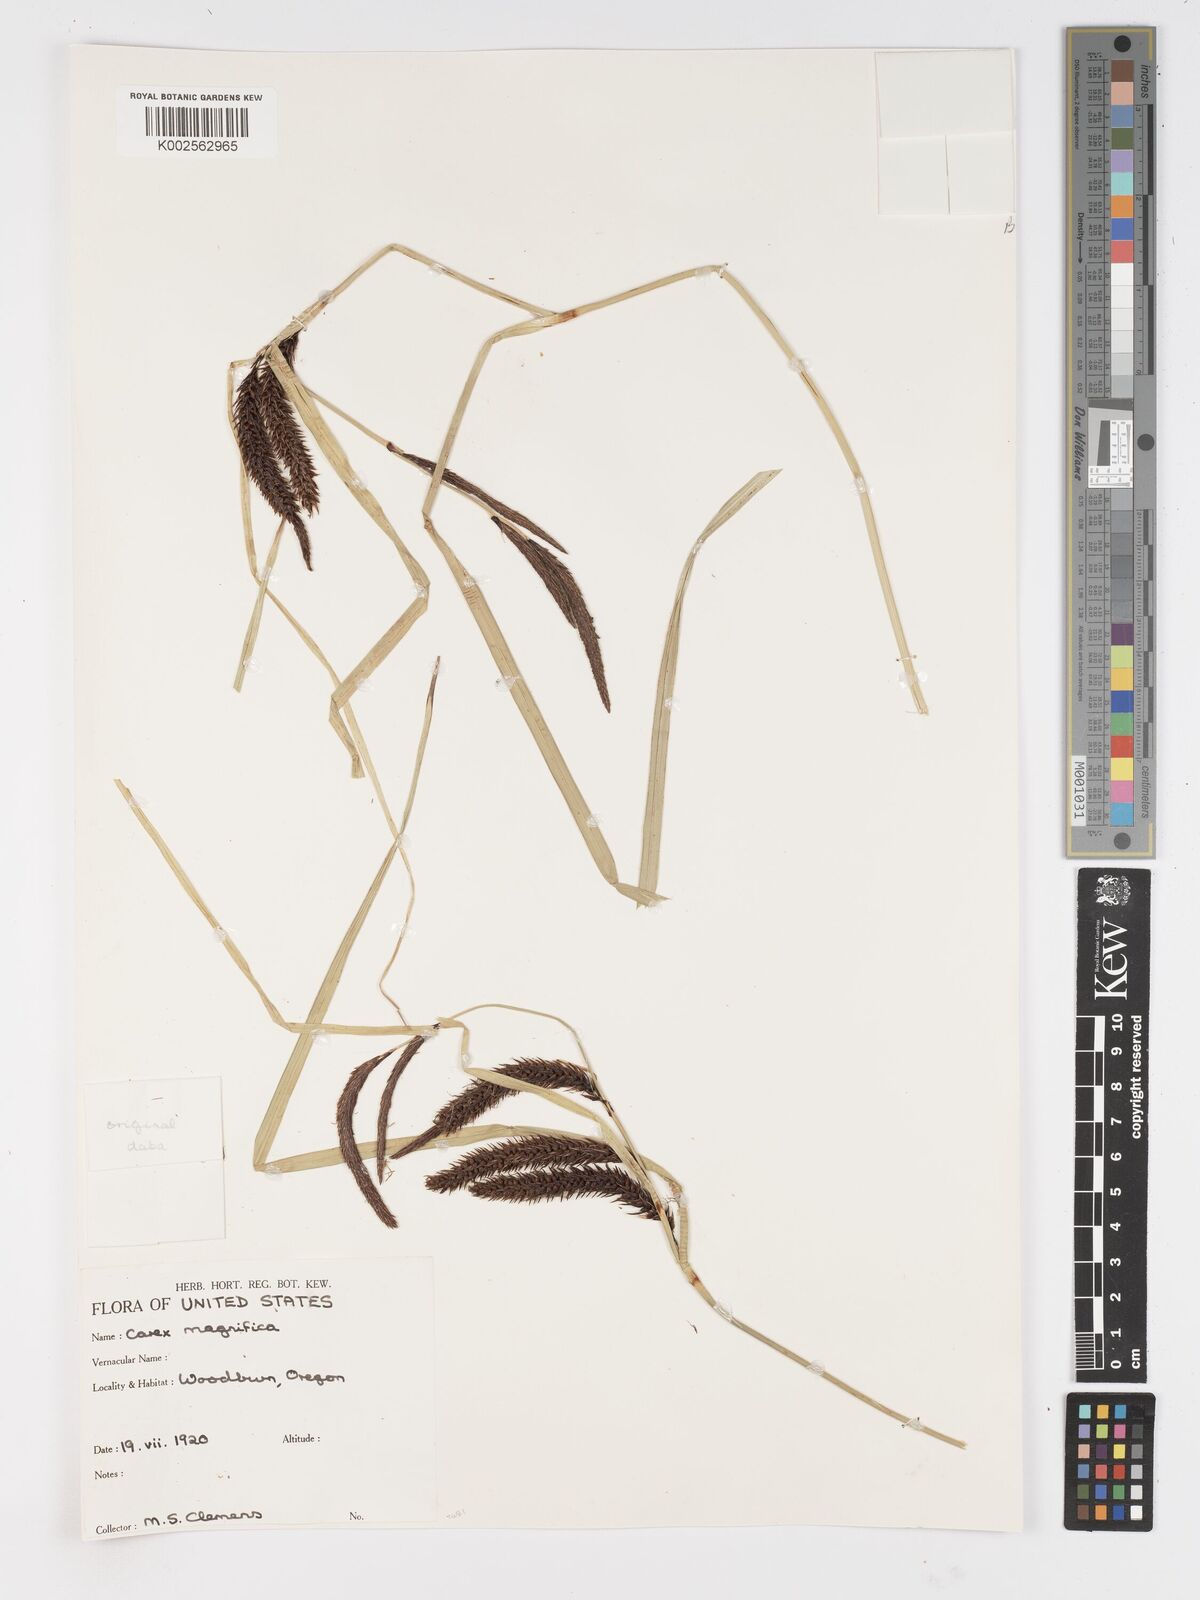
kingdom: Plantae
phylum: Tracheophyta
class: Liliopsida
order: Poales
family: Cyperaceae
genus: Carex
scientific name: Carex obnupta
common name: Slough sedge
